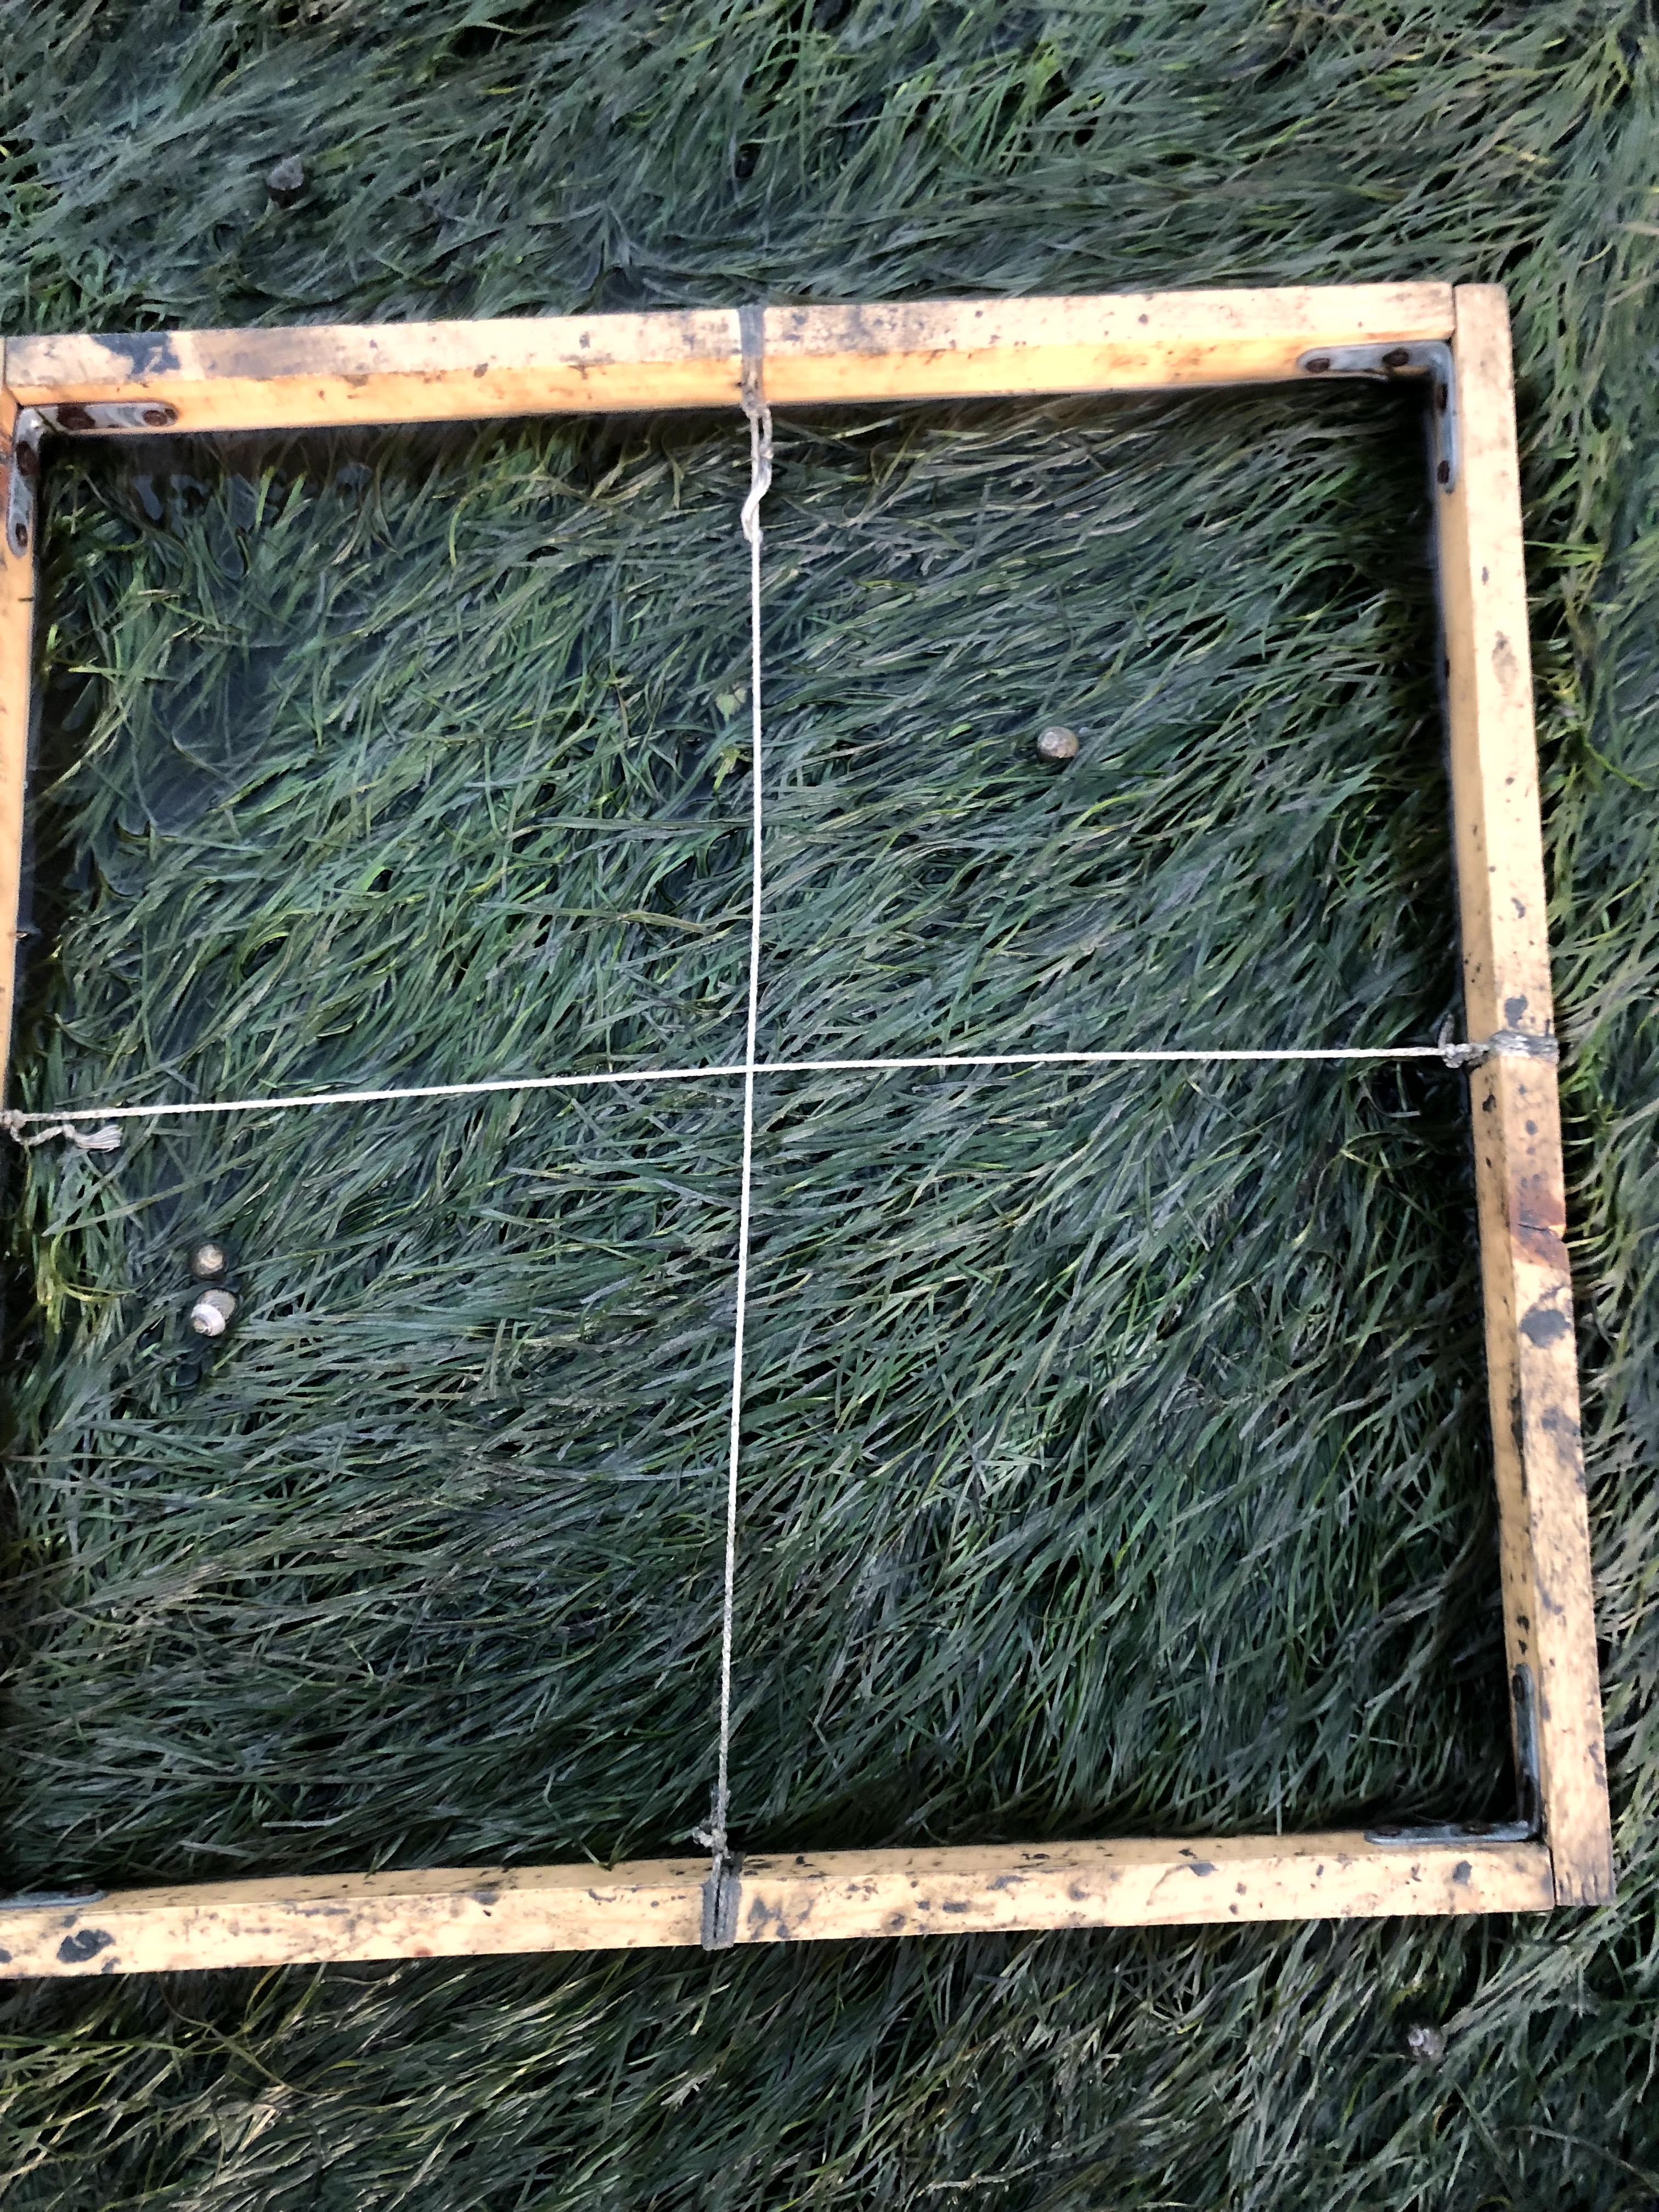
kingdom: Plantae
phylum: Tracheophyta
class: Liliopsida
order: Alismatales
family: Zosteraceae
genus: Zostera
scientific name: Zostera noltii
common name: Dwarf eelgrass
